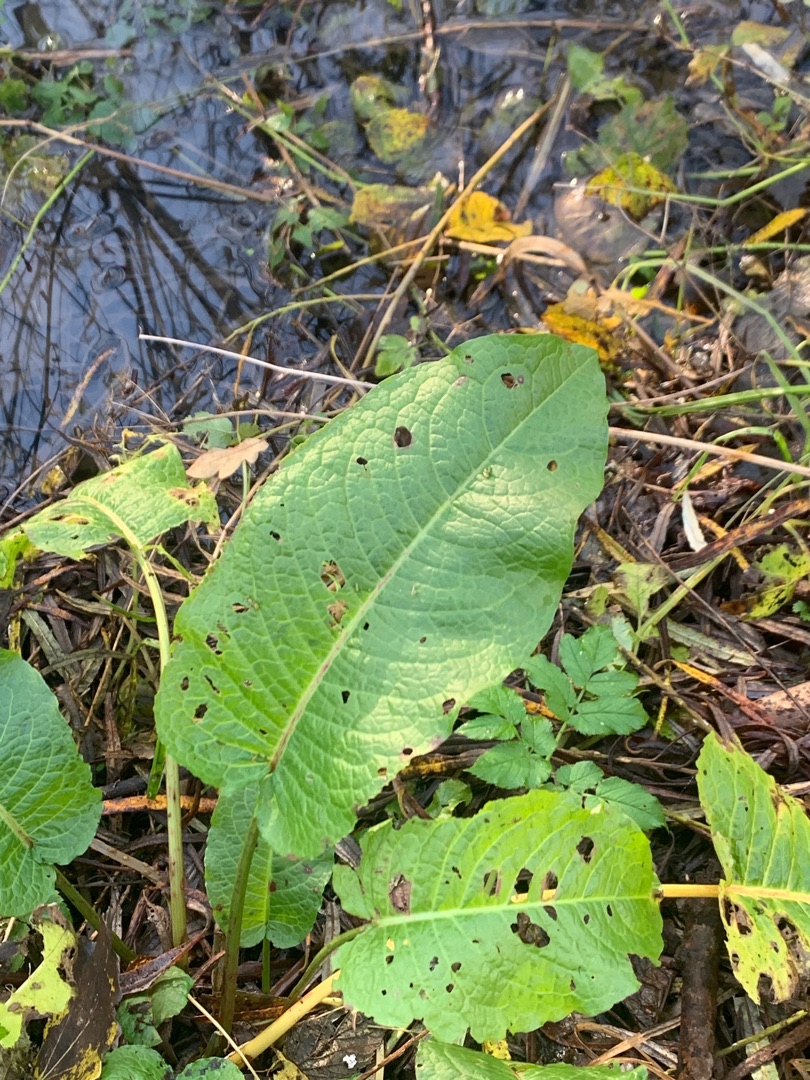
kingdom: Plantae
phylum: Tracheophyta
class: Magnoliopsida
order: Caryophyllales
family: Polygonaceae
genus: Rumex
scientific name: Rumex obtusifolius
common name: Butbladet skræppe
